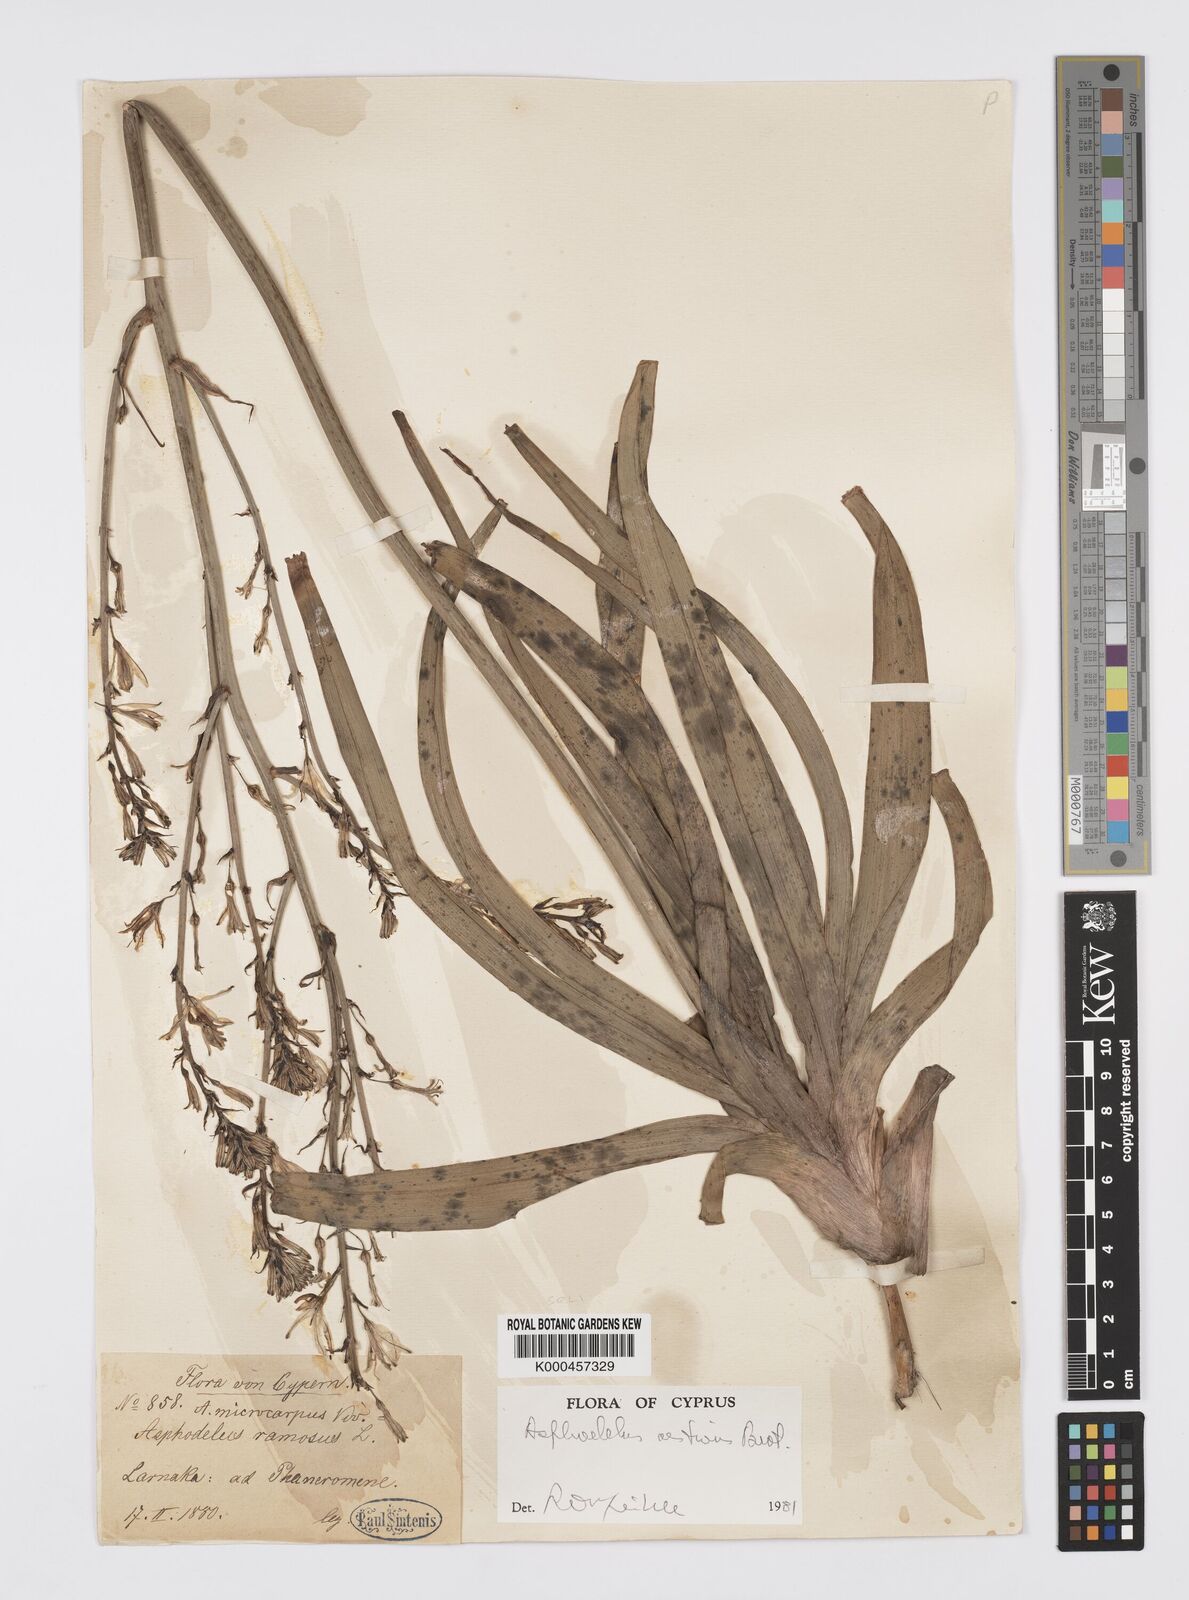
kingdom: Plantae
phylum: Tracheophyta
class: Liliopsida
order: Asparagales
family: Asphodelaceae
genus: Asphodelus
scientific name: Asphodelus aestivus
